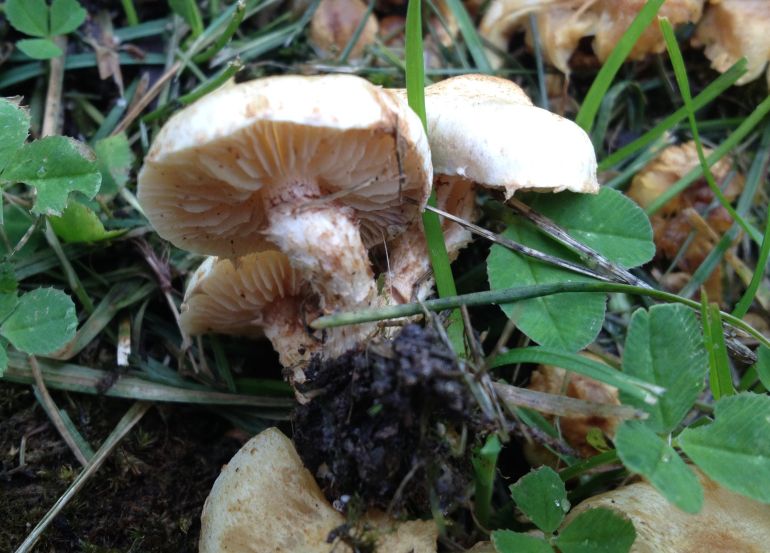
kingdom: Fungi
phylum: Basidiomycota
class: Agaricomycetes
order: Agaricales
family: Strophariaceae
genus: Pholiota
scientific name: Pholiota gummosa
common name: grøngul skælhat
